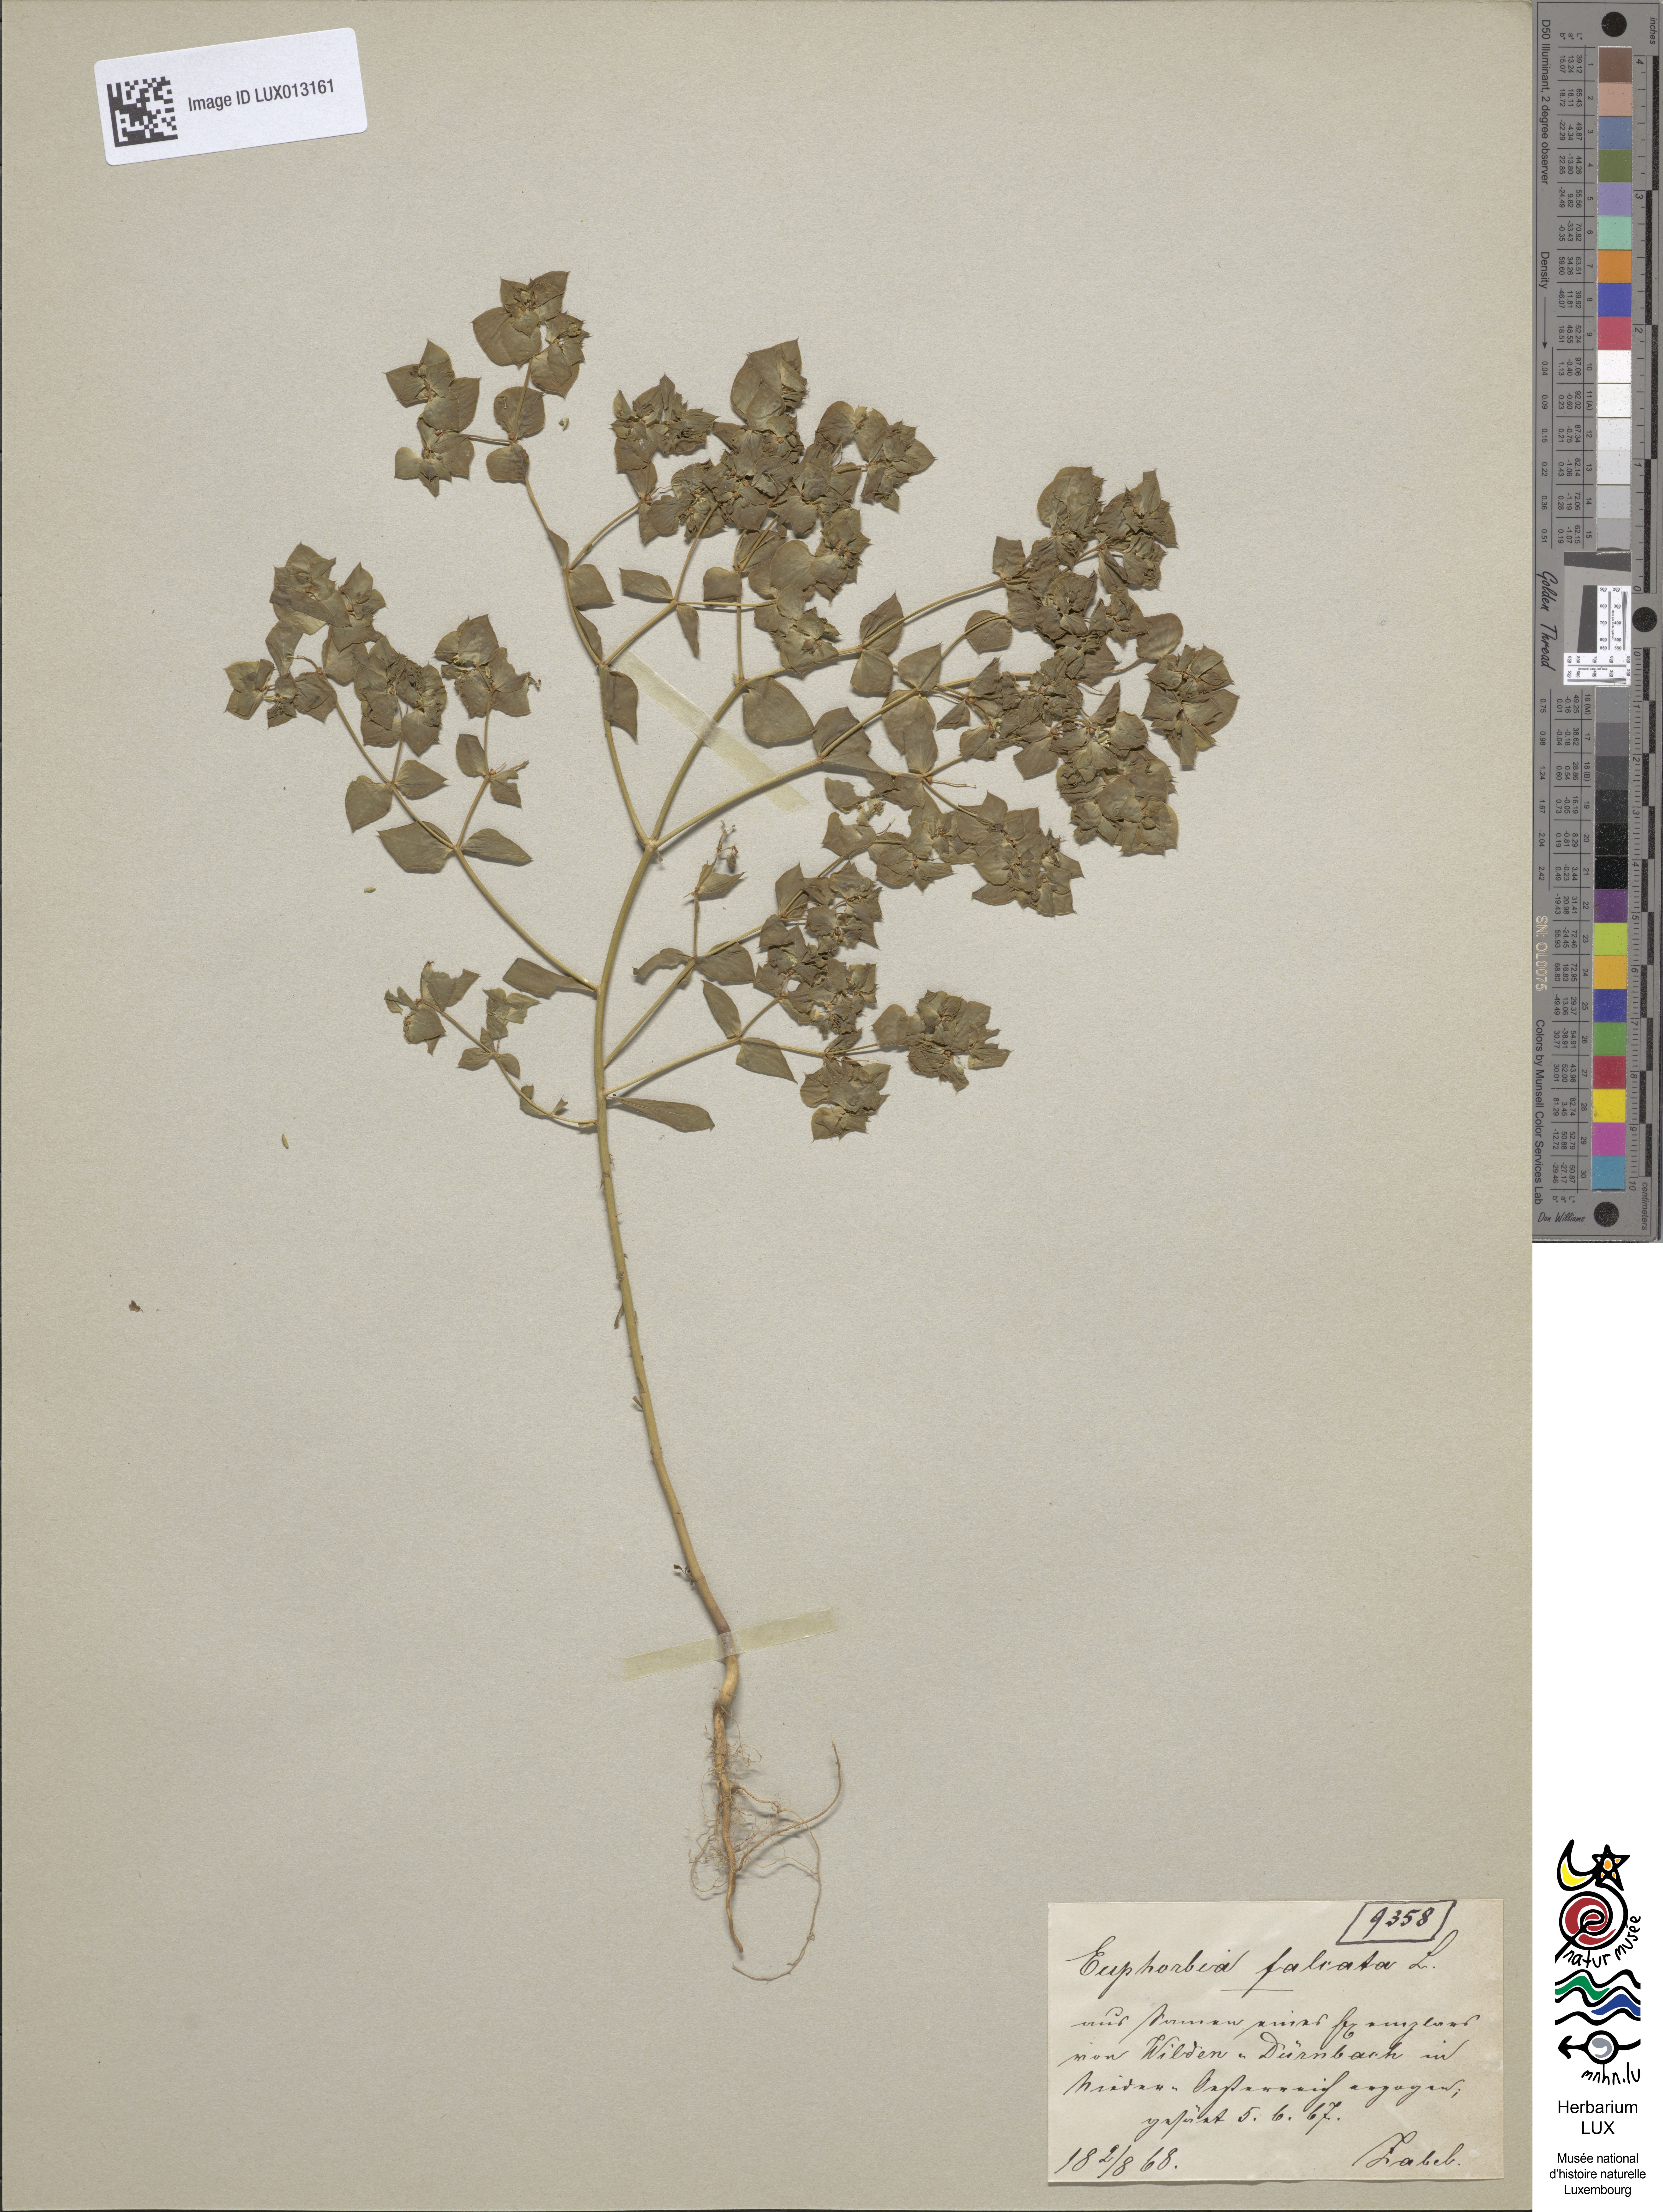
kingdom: Plantae
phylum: Tracheophyta
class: Magnoliopsida
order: Malpighiales
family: Euphorbiaceae
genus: Euphorbia
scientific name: Euphorbia falcata
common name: Sickle spurge
